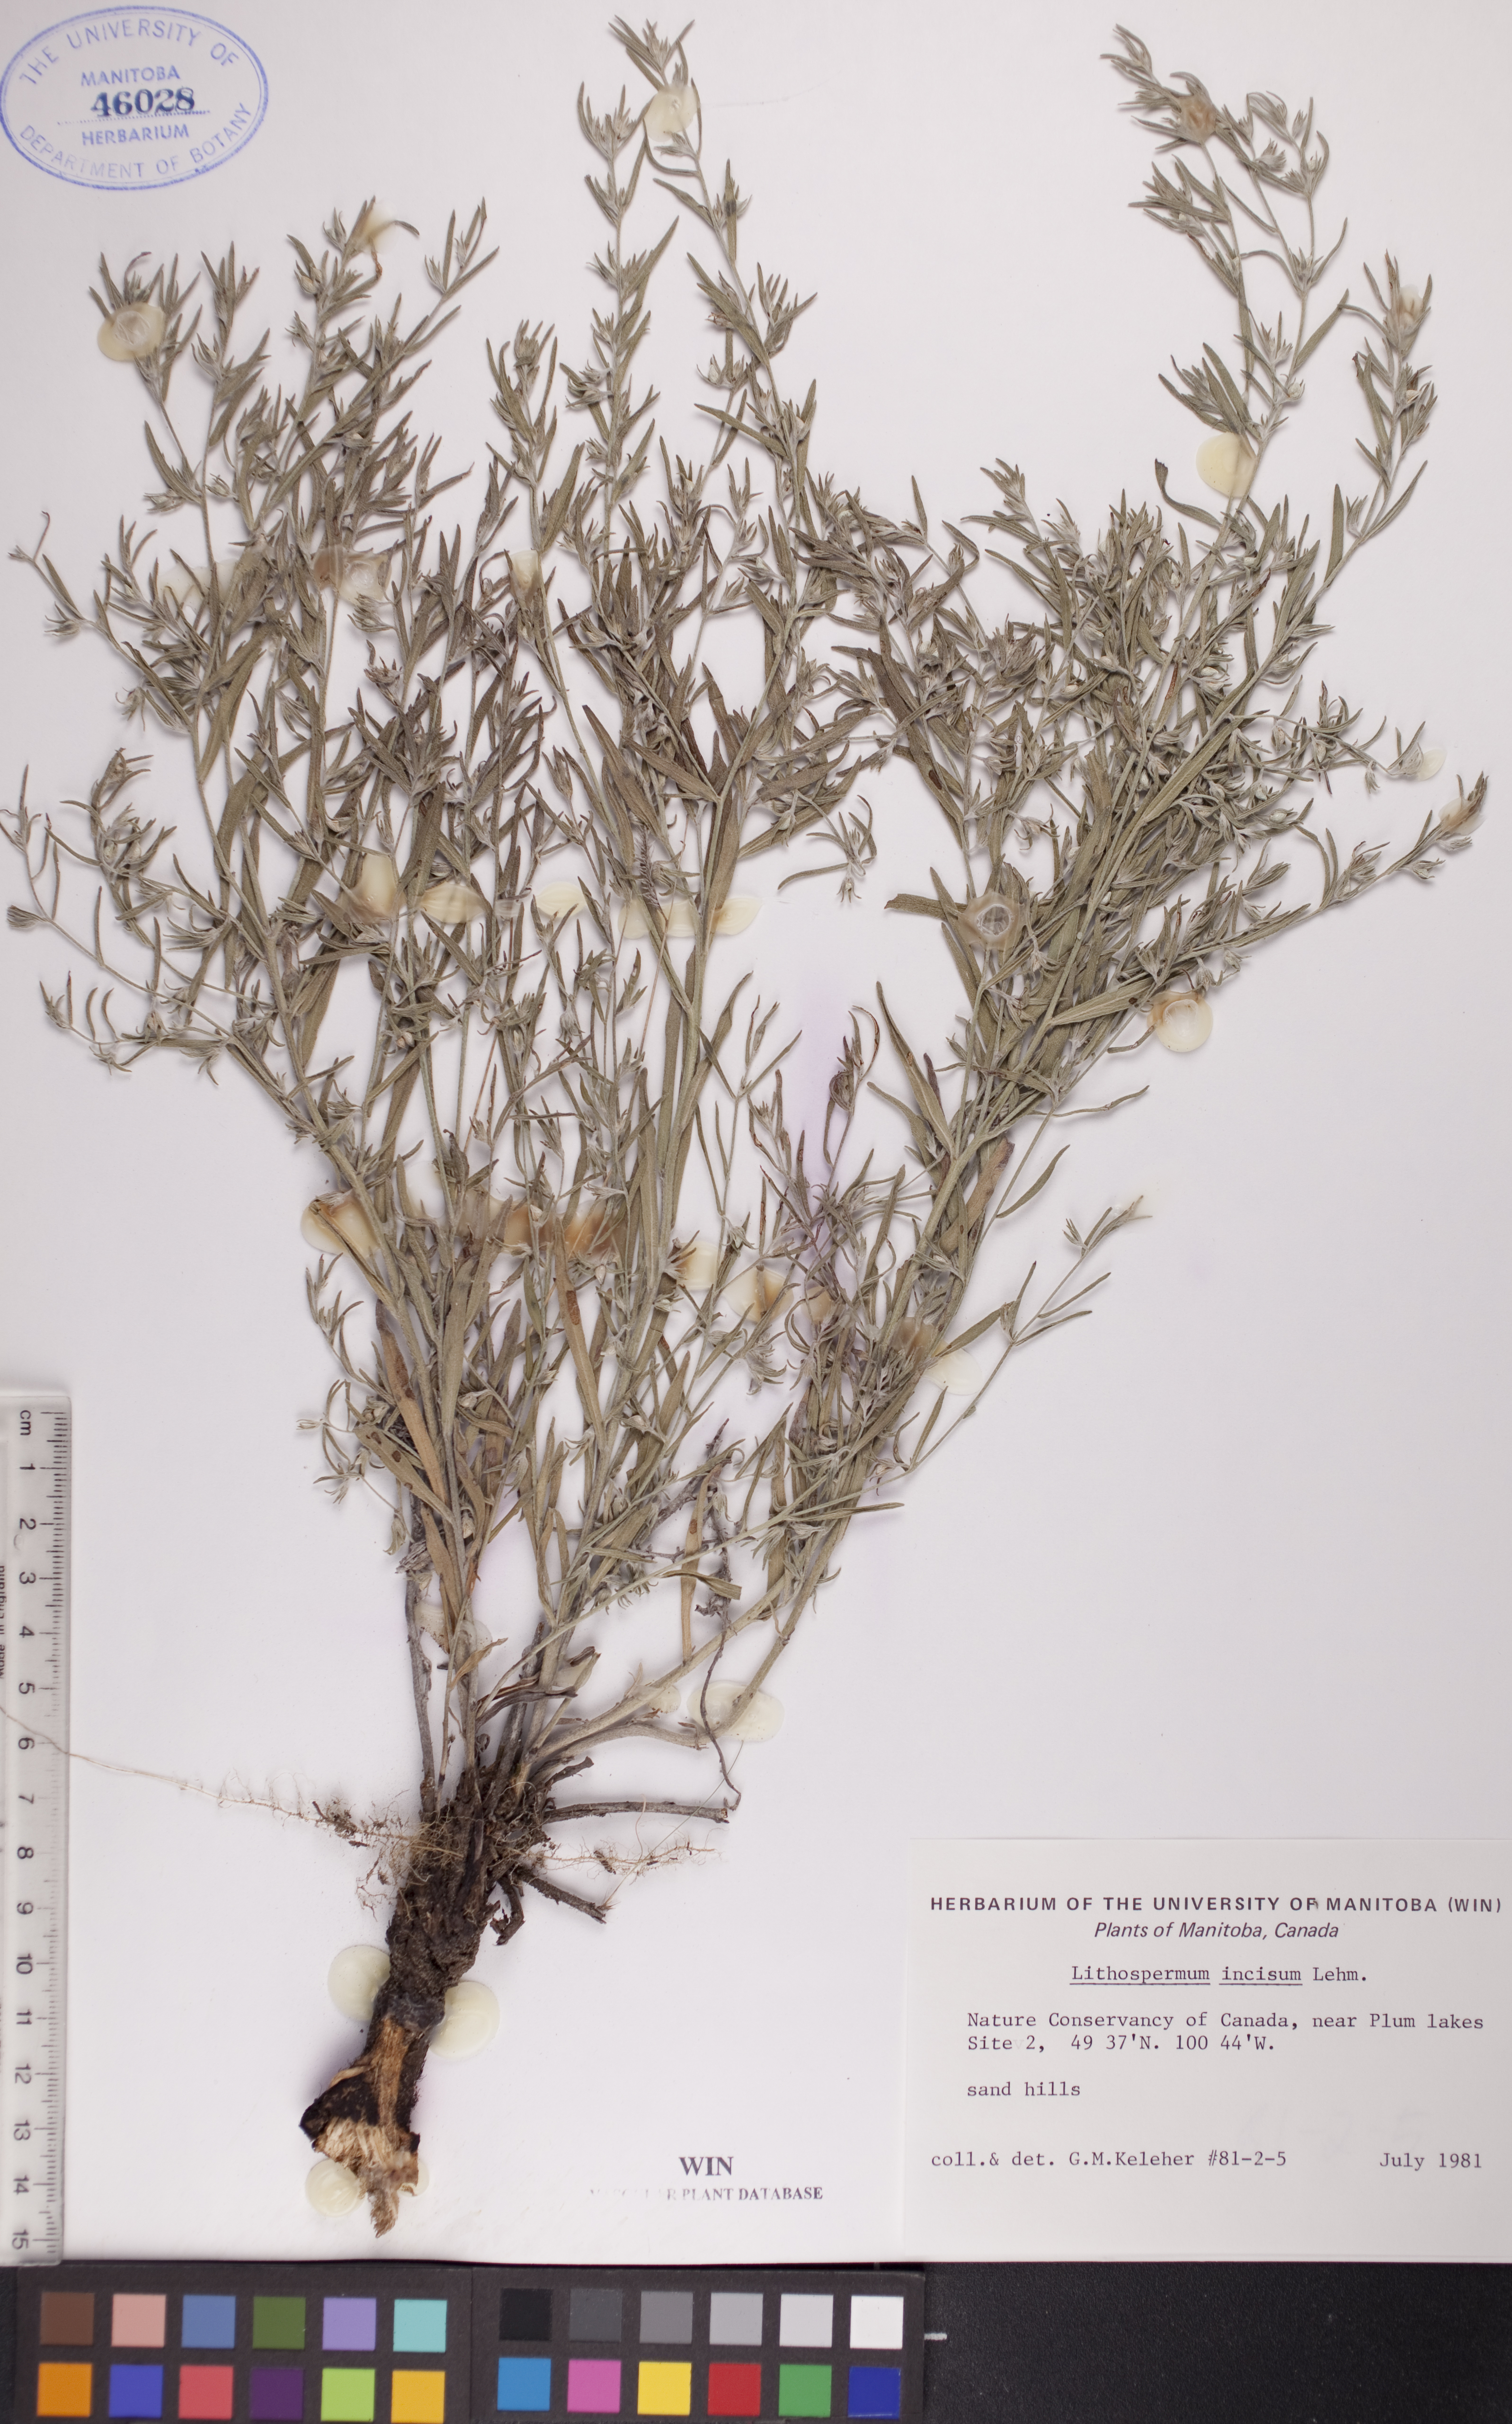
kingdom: Plantae
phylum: Tracheophyta
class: Magnoliopsida
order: Boraginales
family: Boraginaceae
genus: Lithospermum
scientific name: Lithospermum incisum
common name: Fringed gromwell
